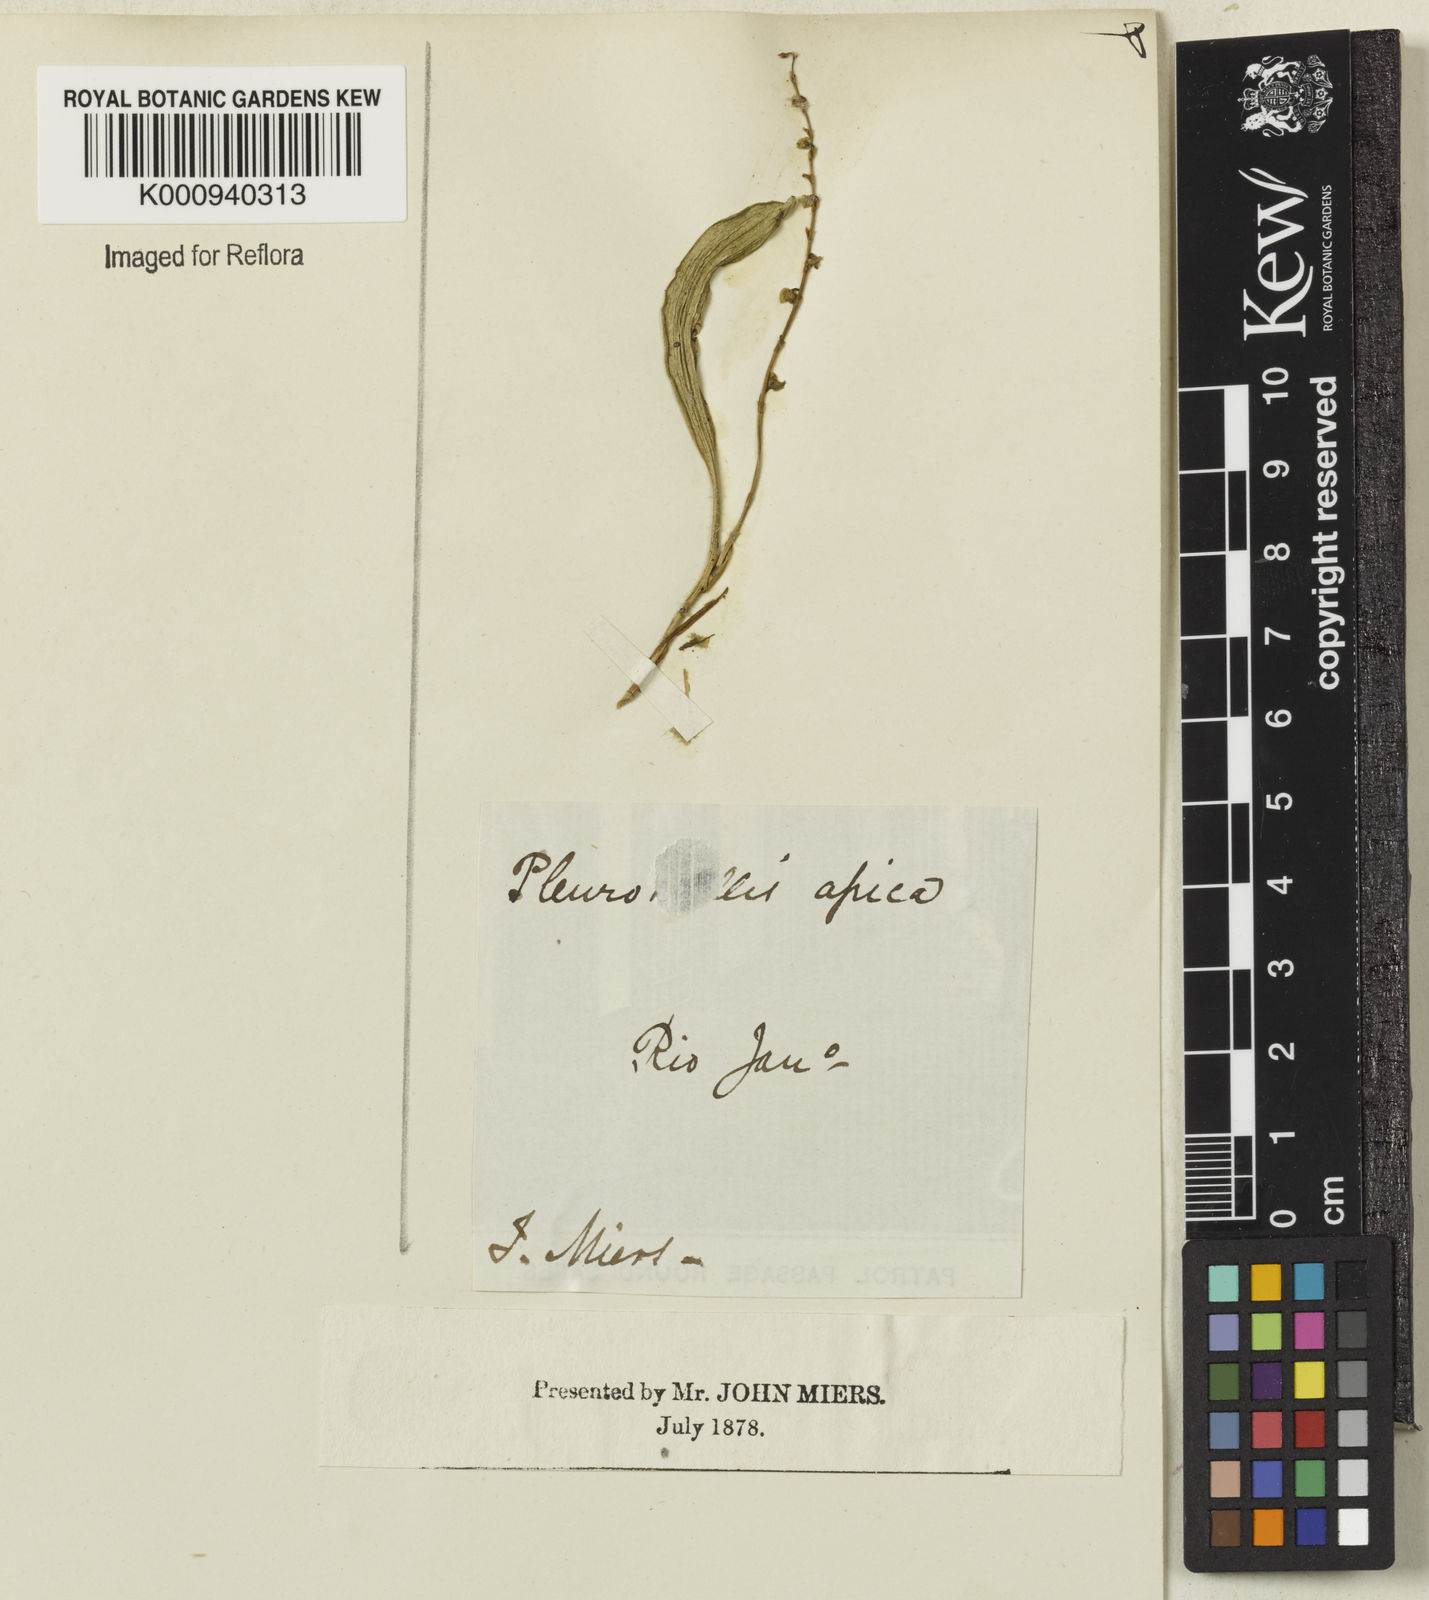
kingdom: Plantae
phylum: Tracheophyta
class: Liliopsida
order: Asparagales
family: Orchidaceae
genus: Stelis
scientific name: Stelis intermedia
